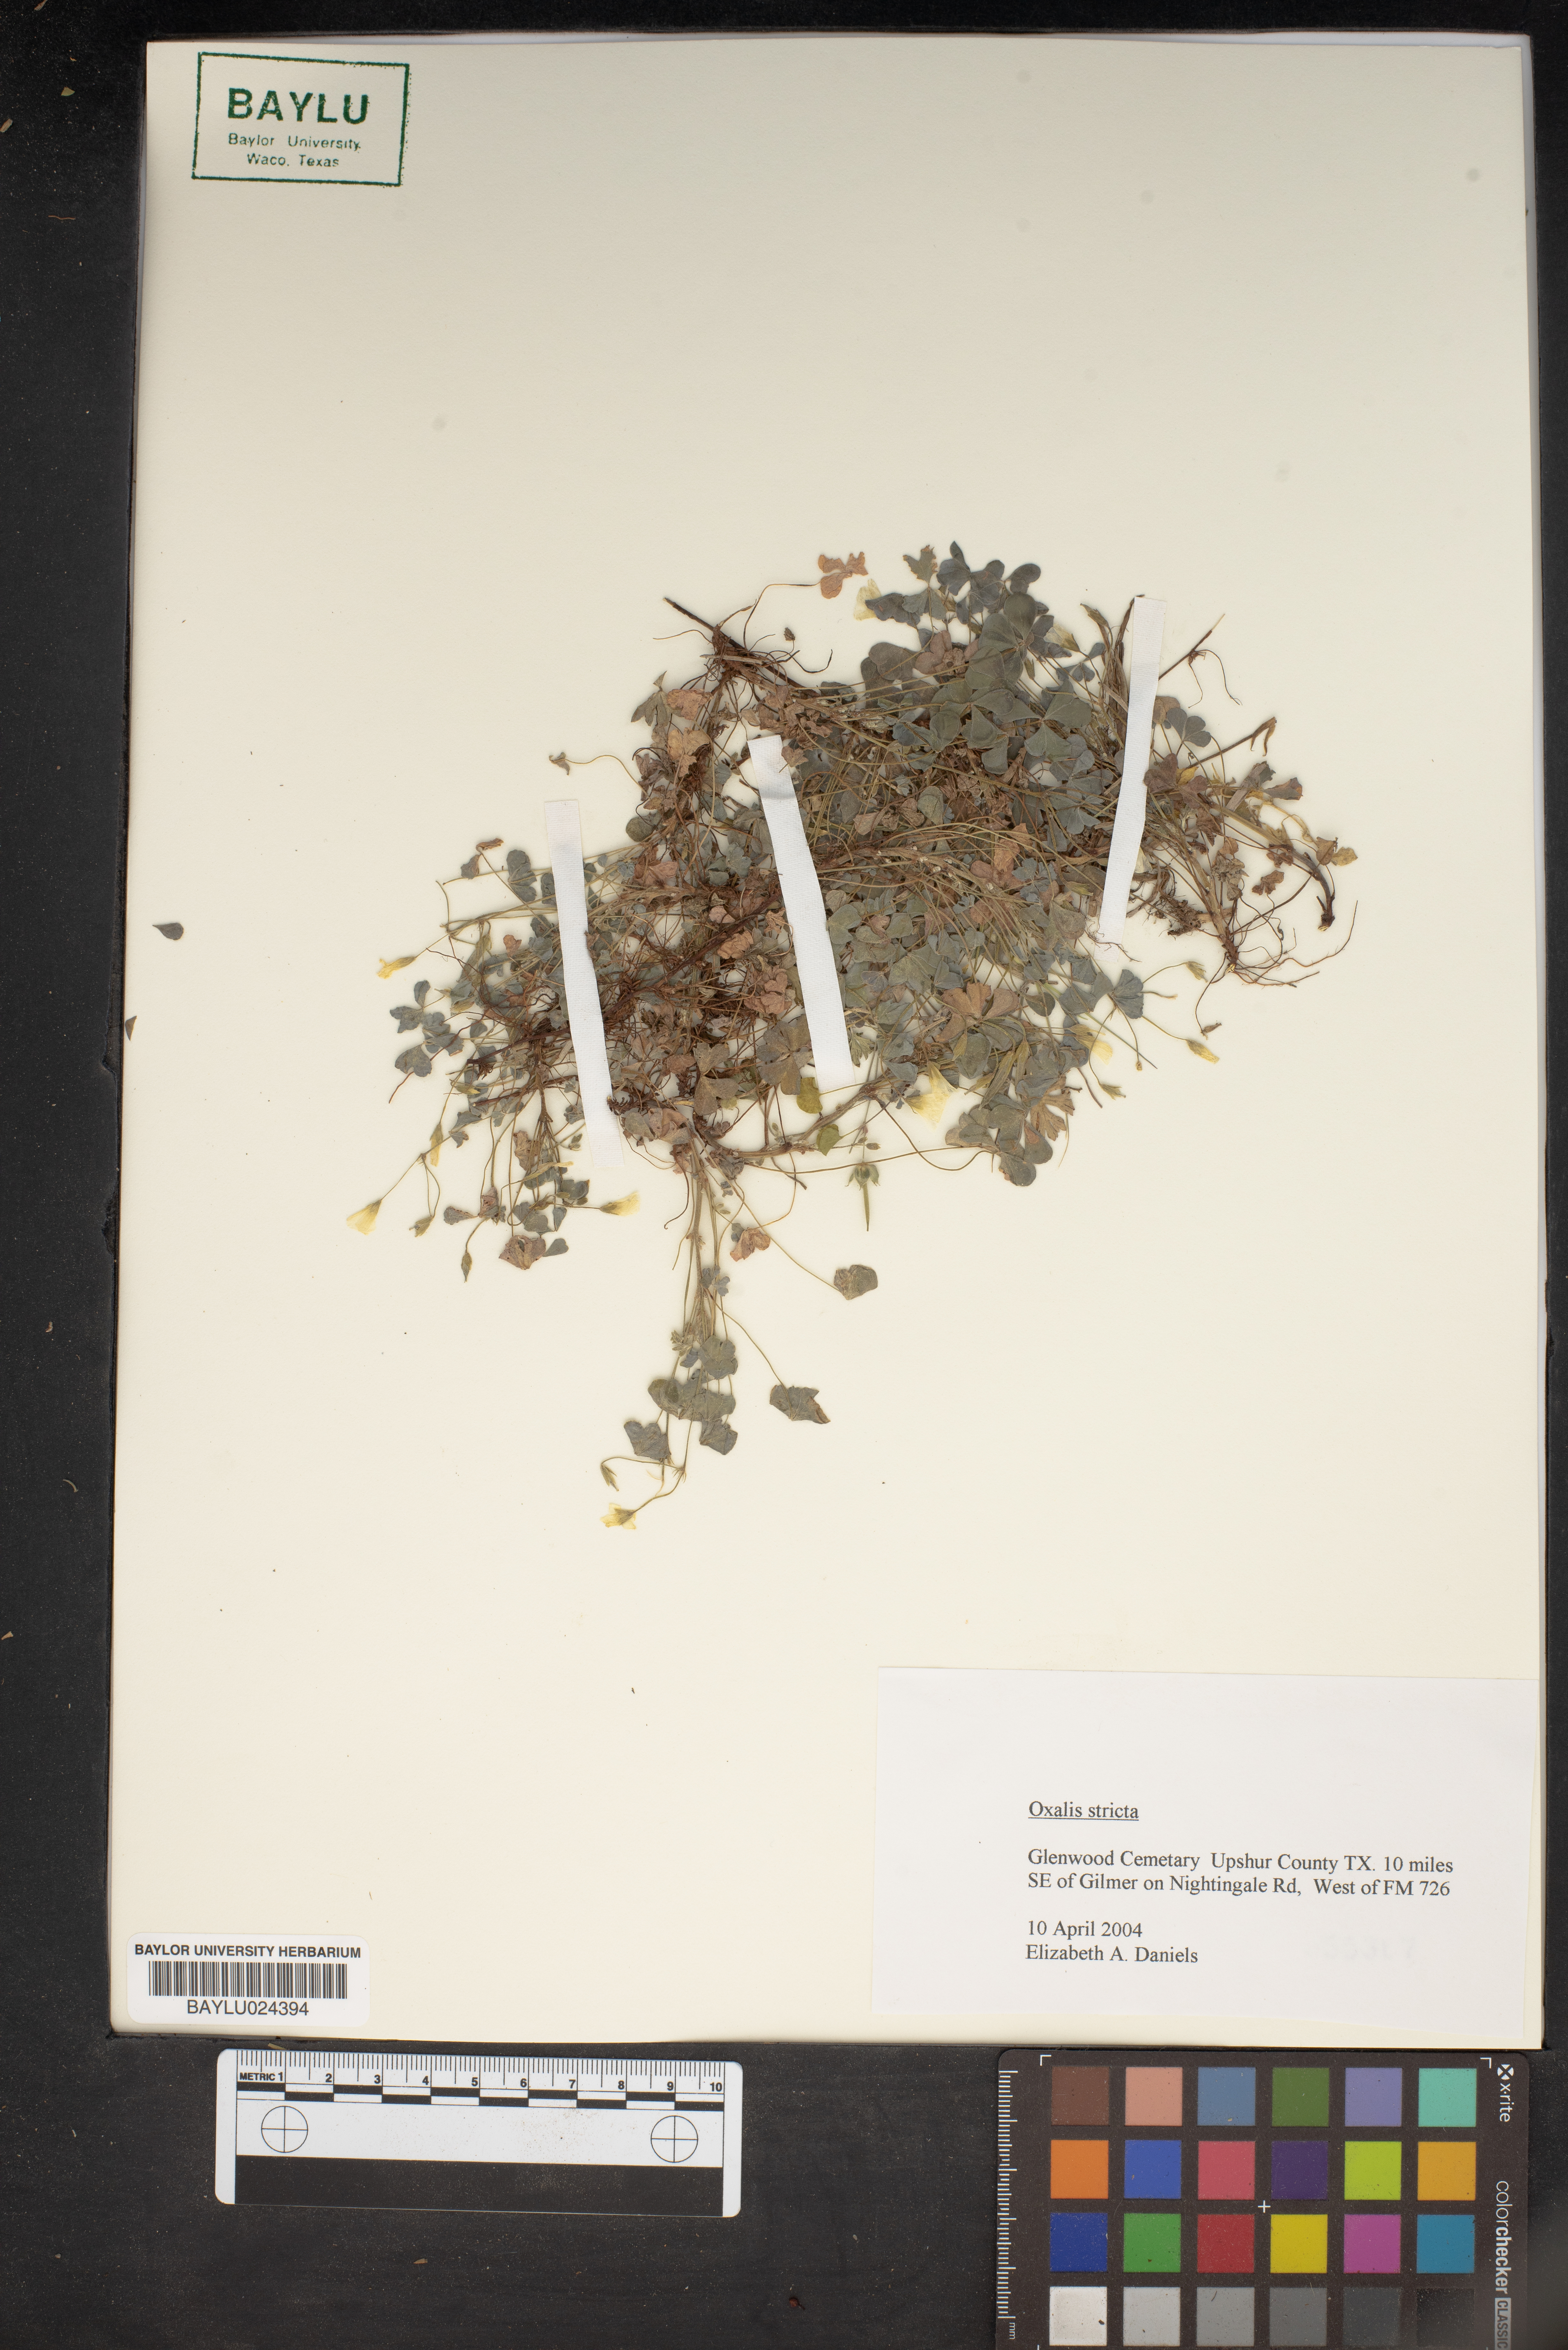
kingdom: Plantae
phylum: Tracheophyta
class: Magnoliopsida
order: Oxalidales
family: Oxalidaceae
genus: Oxalis
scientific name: Oxalis stricta
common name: Upright yellow-sorrel
